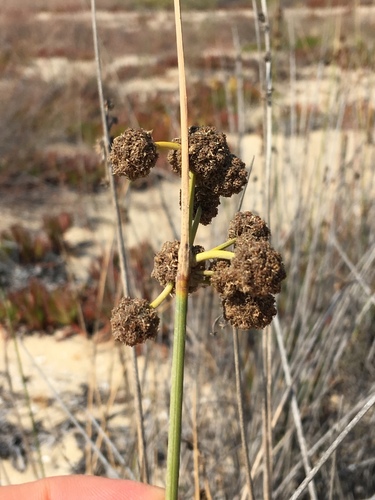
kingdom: Plantae
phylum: Tracheophyta
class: Liliopsida
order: Poales
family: Cyperaceae
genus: Scirpoides
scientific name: Scirpoides holoschoenus
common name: Round-headed club-rush
